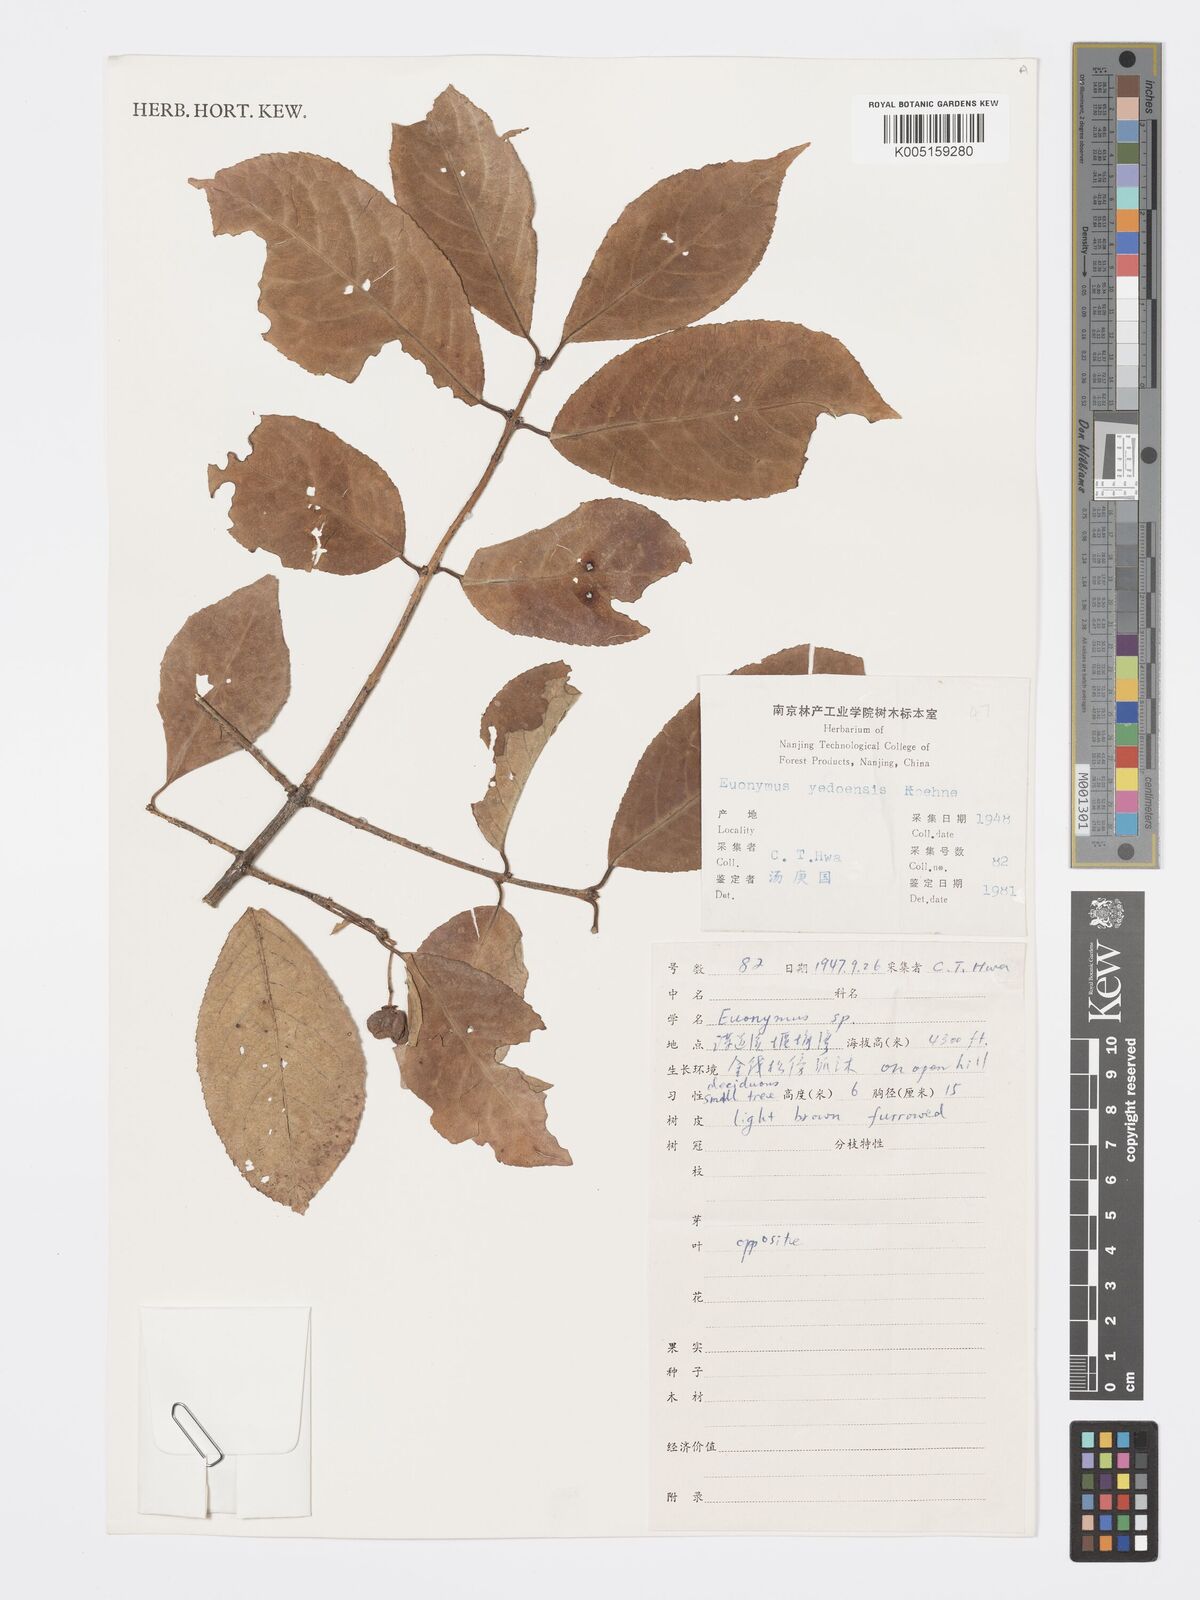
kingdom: Plantae
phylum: Tracheophyta
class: Magnoliopsida
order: Celastrales
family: Celastraceae
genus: Euonymus
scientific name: Euonymus hamiltonianus
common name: Hamilton's spindletree
